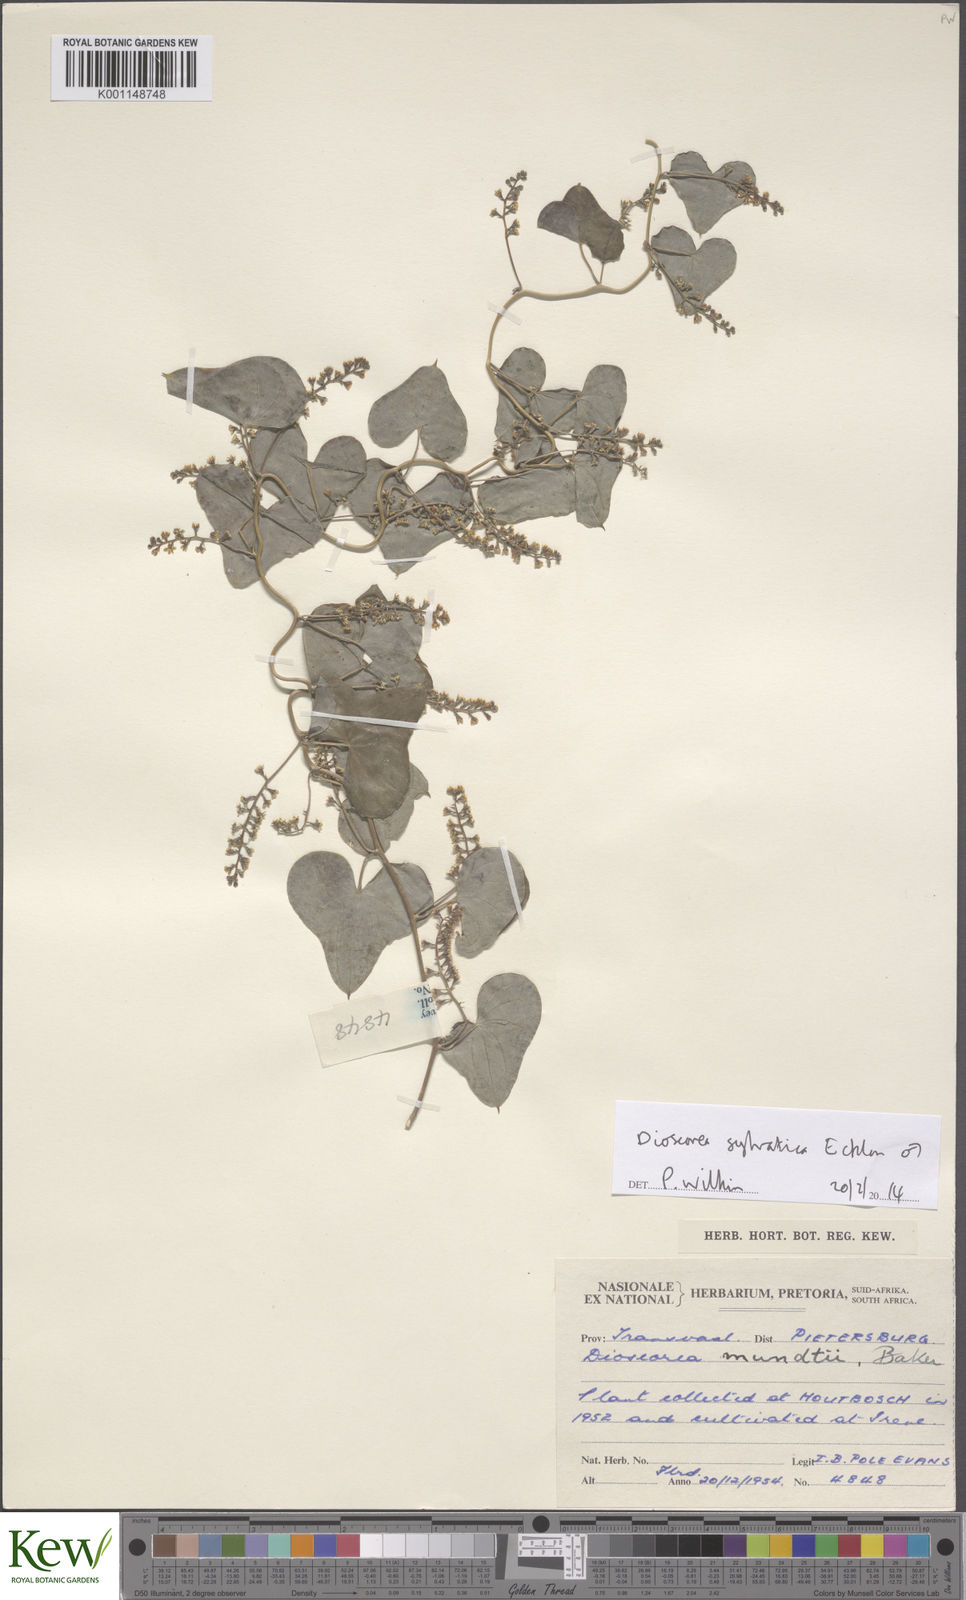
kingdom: Plantae
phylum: Tracheophyta
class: Liliopsida
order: Dioscoreales
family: Dioscoreaceae
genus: Dioscorea
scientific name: Dioscorea sylvatica
